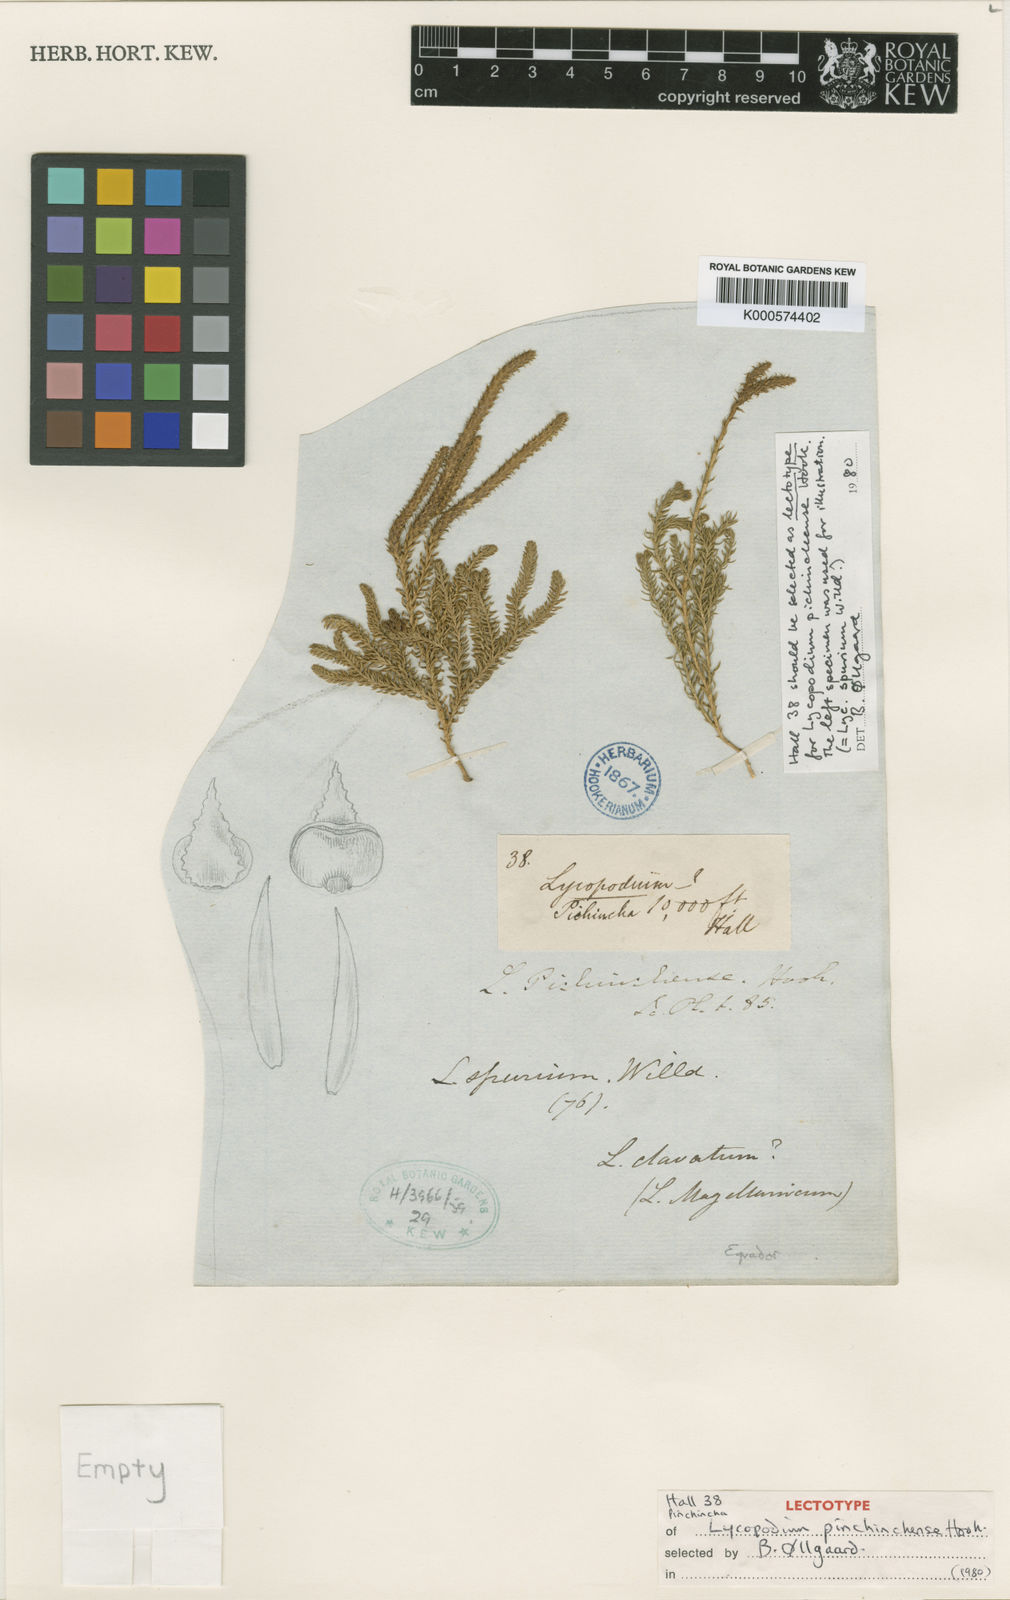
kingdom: Plantae
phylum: Tracheophyta
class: Lycopodiopsida
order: Lycopodiales
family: Lycopodiaceae
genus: Lycopodium
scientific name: Lycopodium
